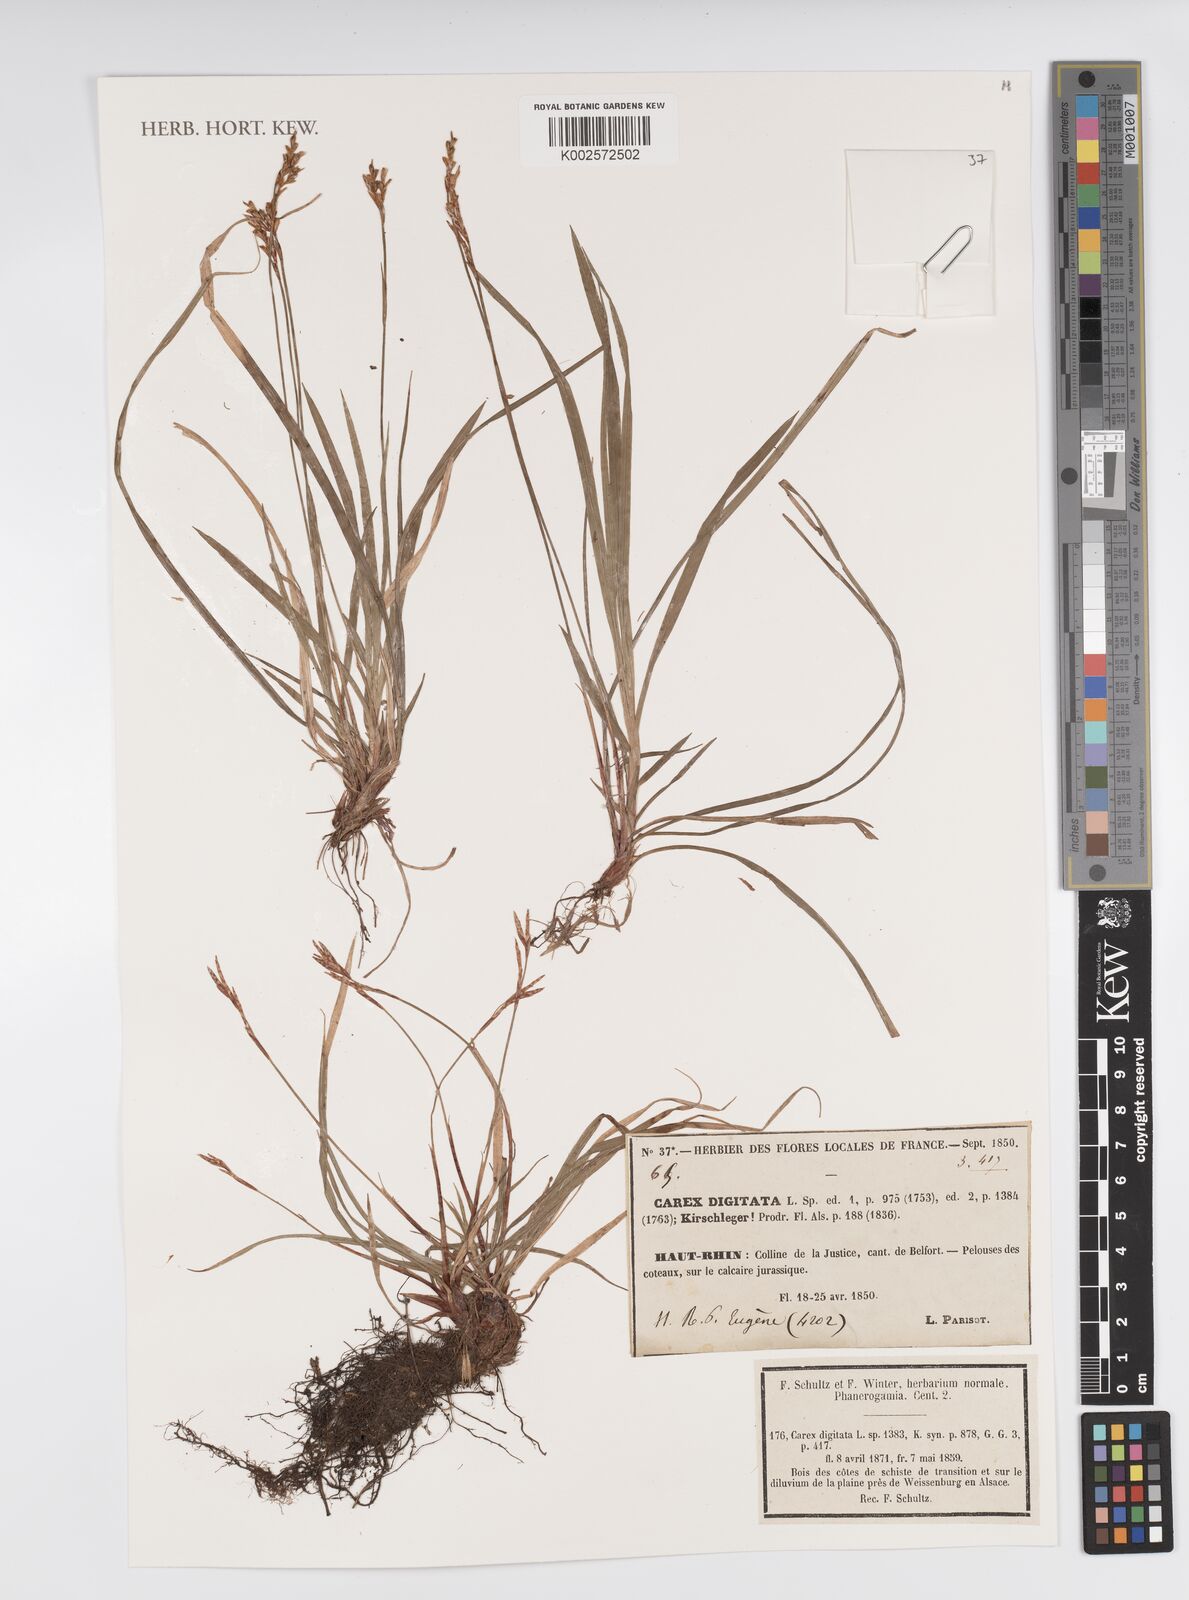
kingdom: Plantae
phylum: Tracheophyta
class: Liliopsida
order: Poales
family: Cyperaceae
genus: Carex
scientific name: Carex digitata
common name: Fingered sedge
